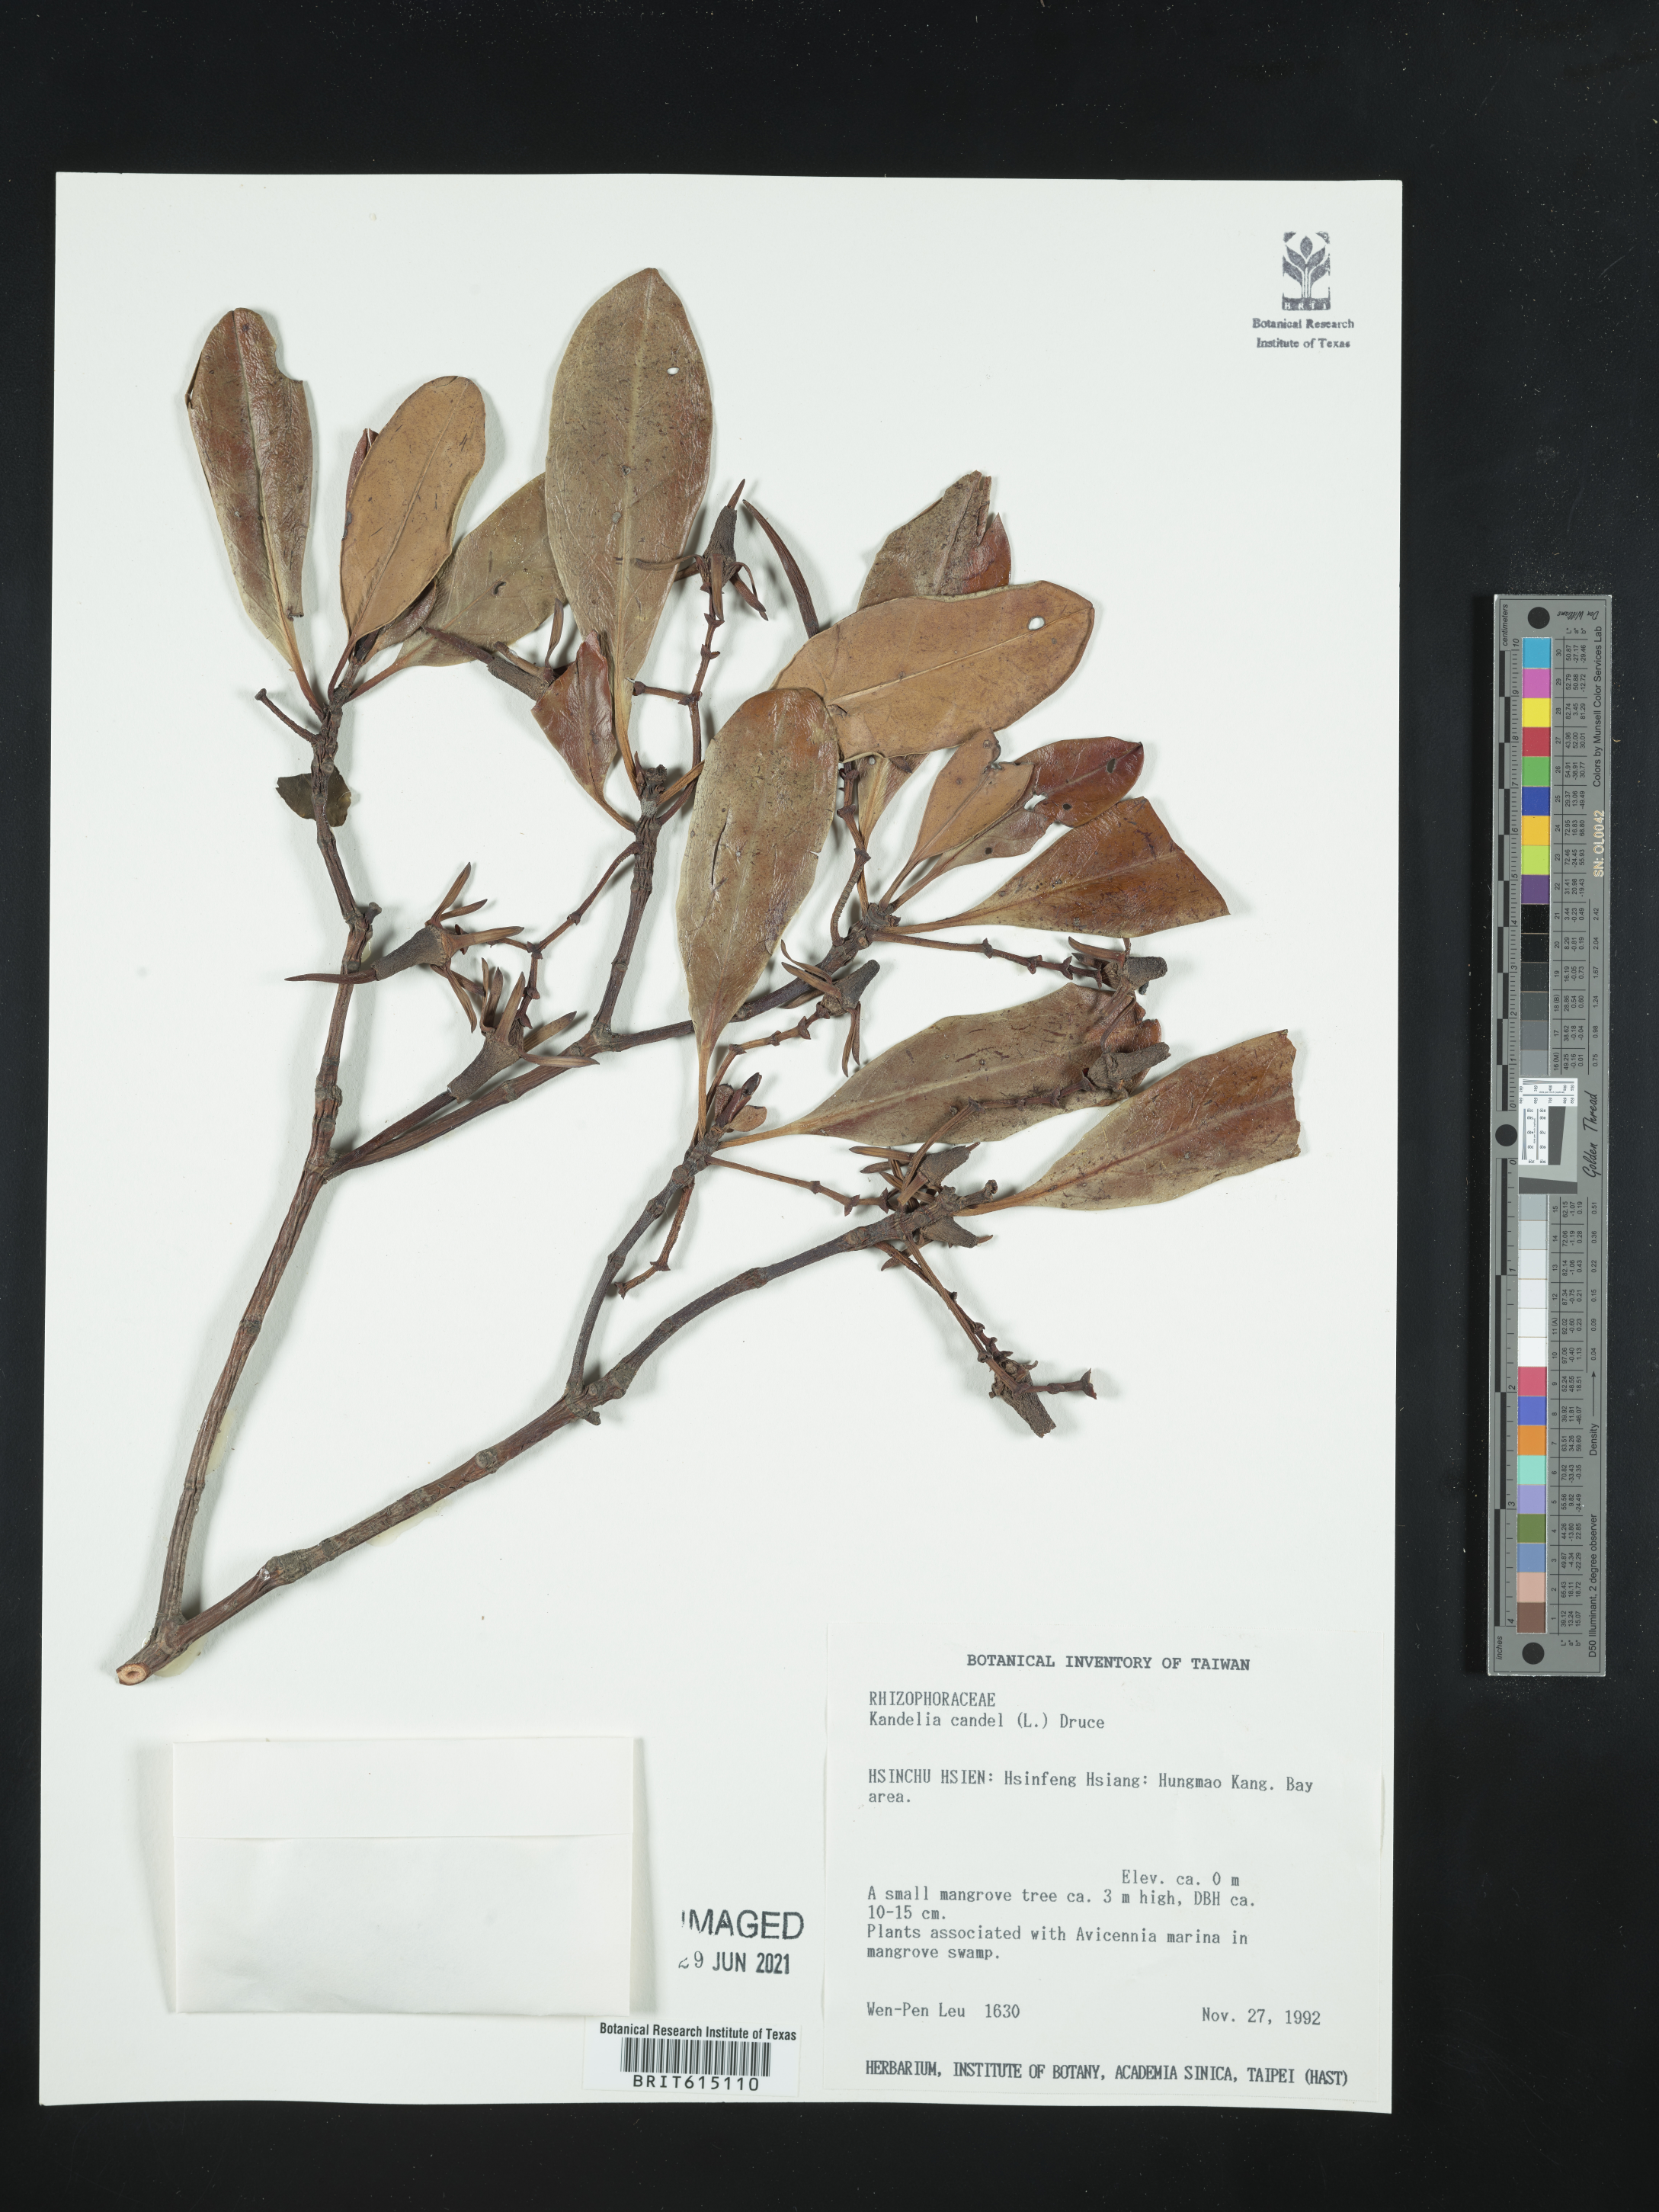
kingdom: Plantae
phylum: Tracheophyta
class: Magnoliopsida
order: Malpighiales
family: Rhizophoraceae
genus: Kandelia
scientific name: Kandelia candel
